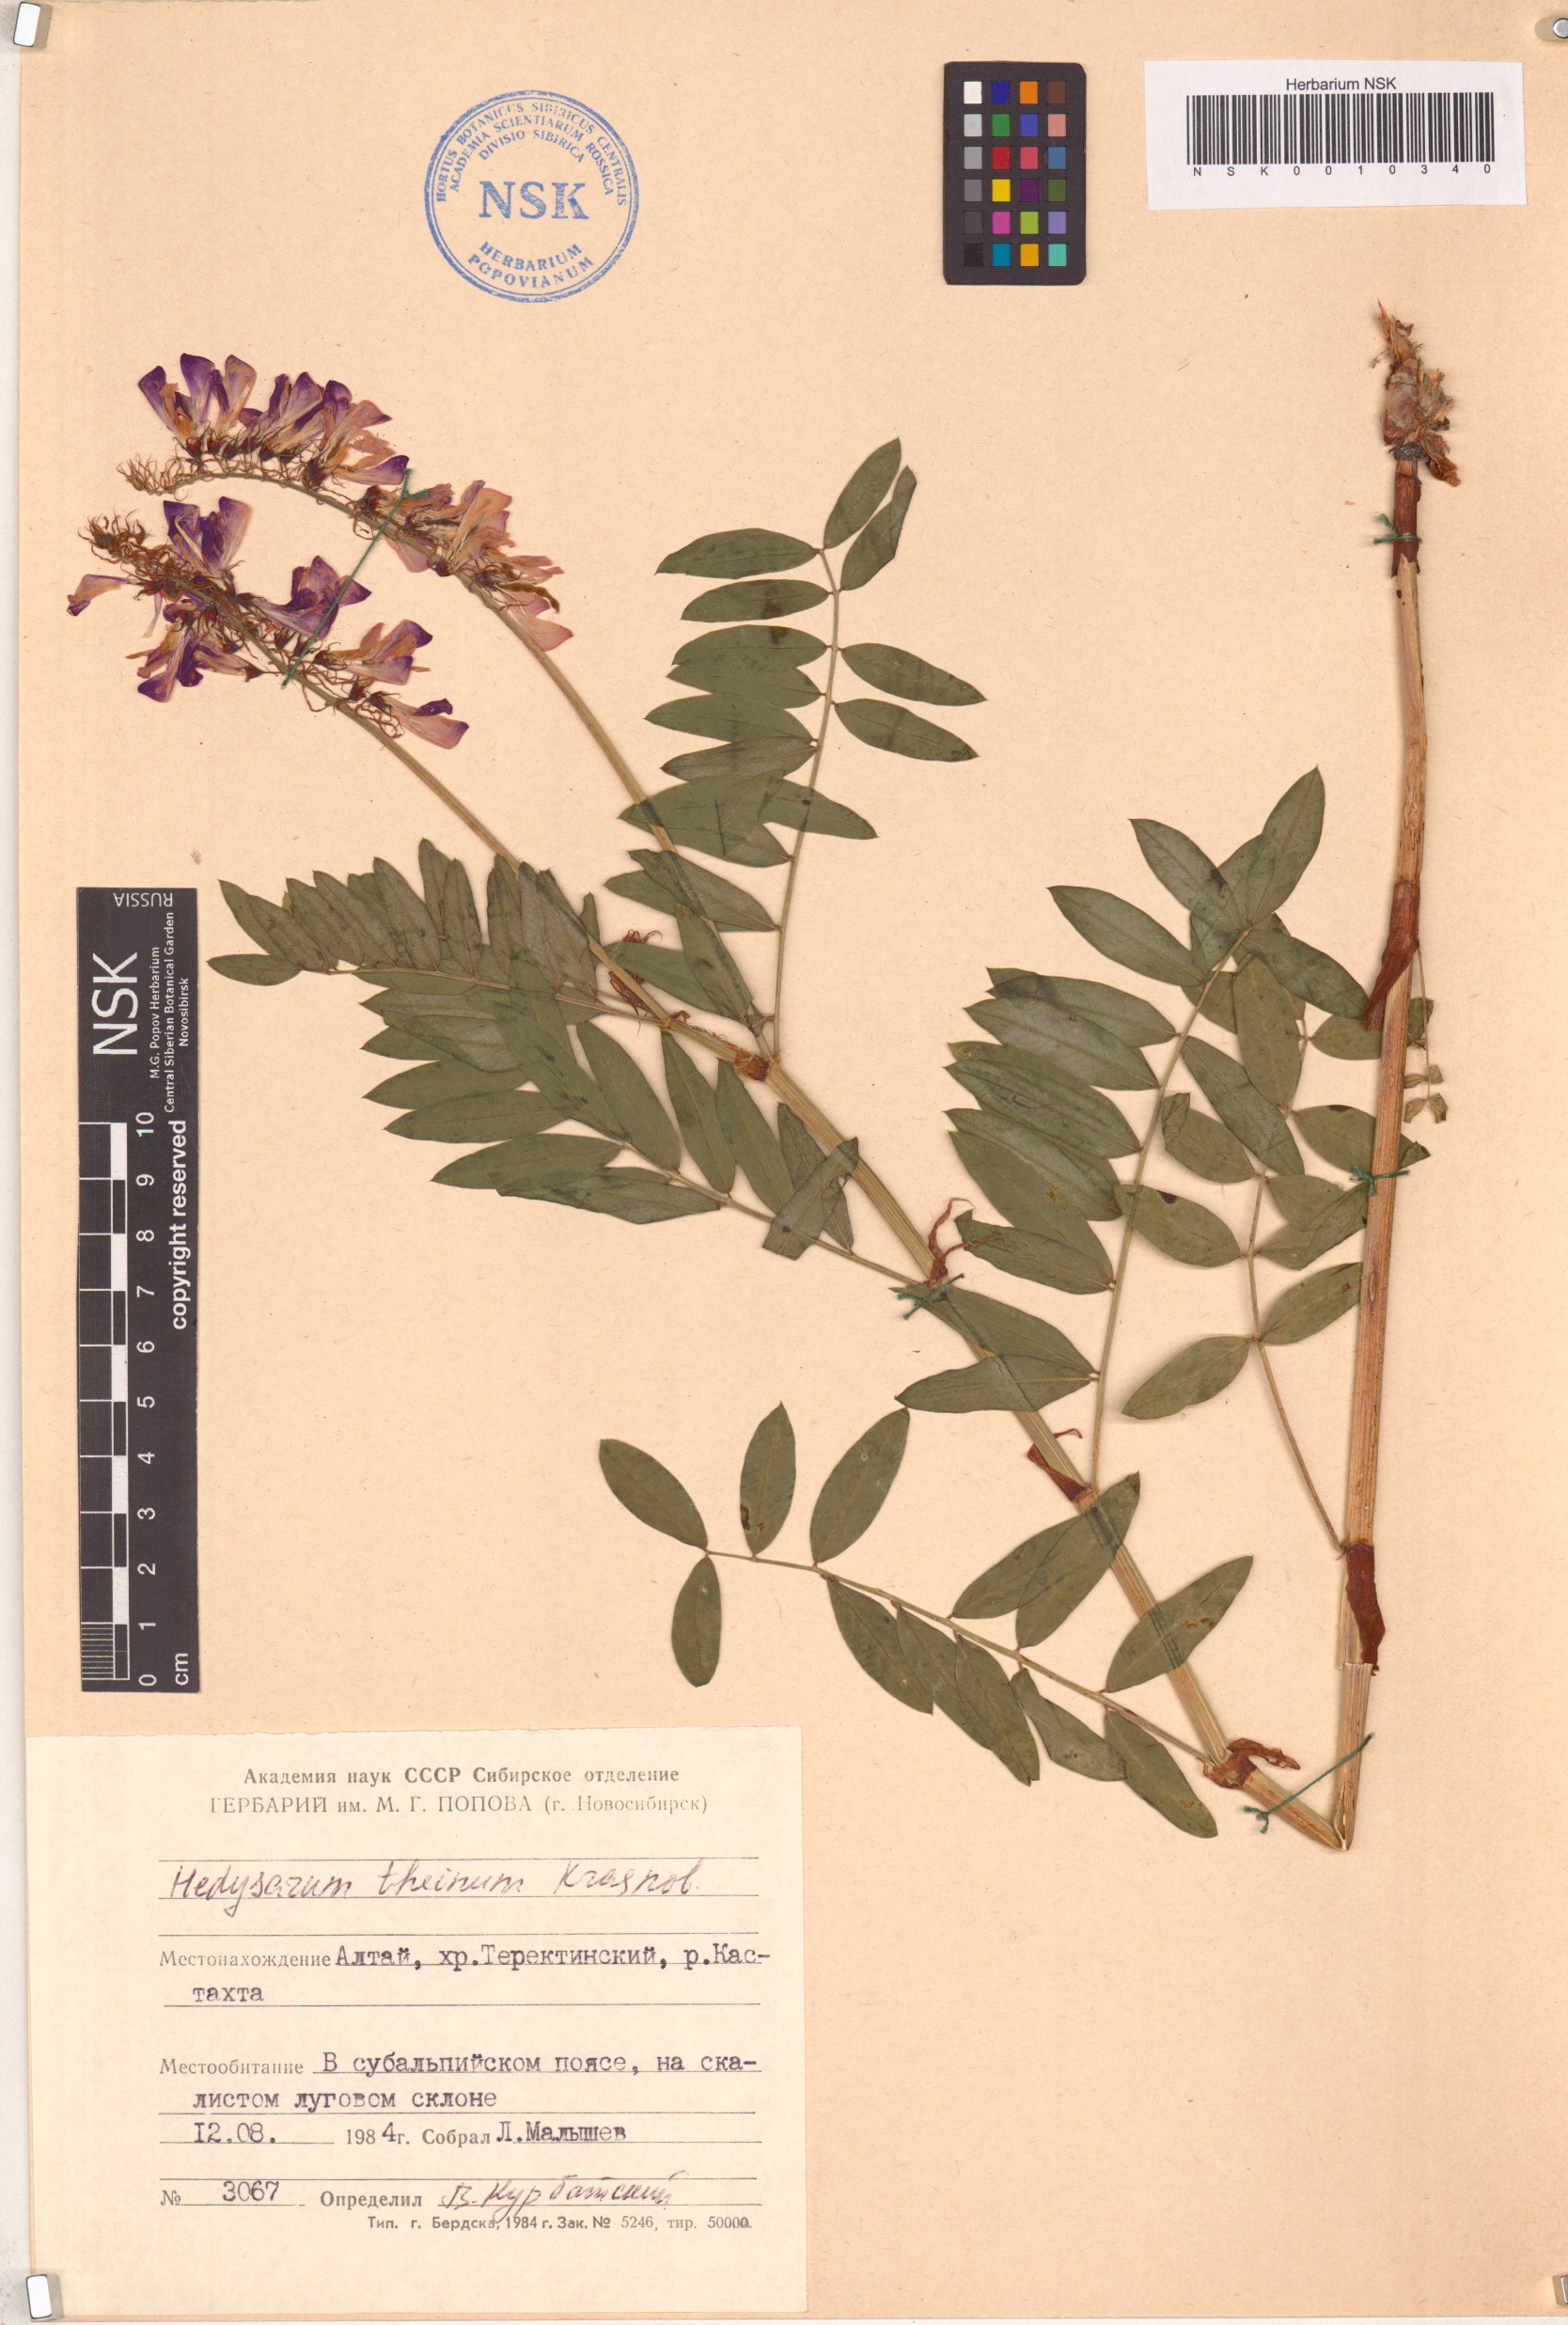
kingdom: Plantae
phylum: Tracheophyta
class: Magnoliopsida
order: Fabales
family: Fabaceae
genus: Hedysarum
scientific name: Hedysarum theinum
